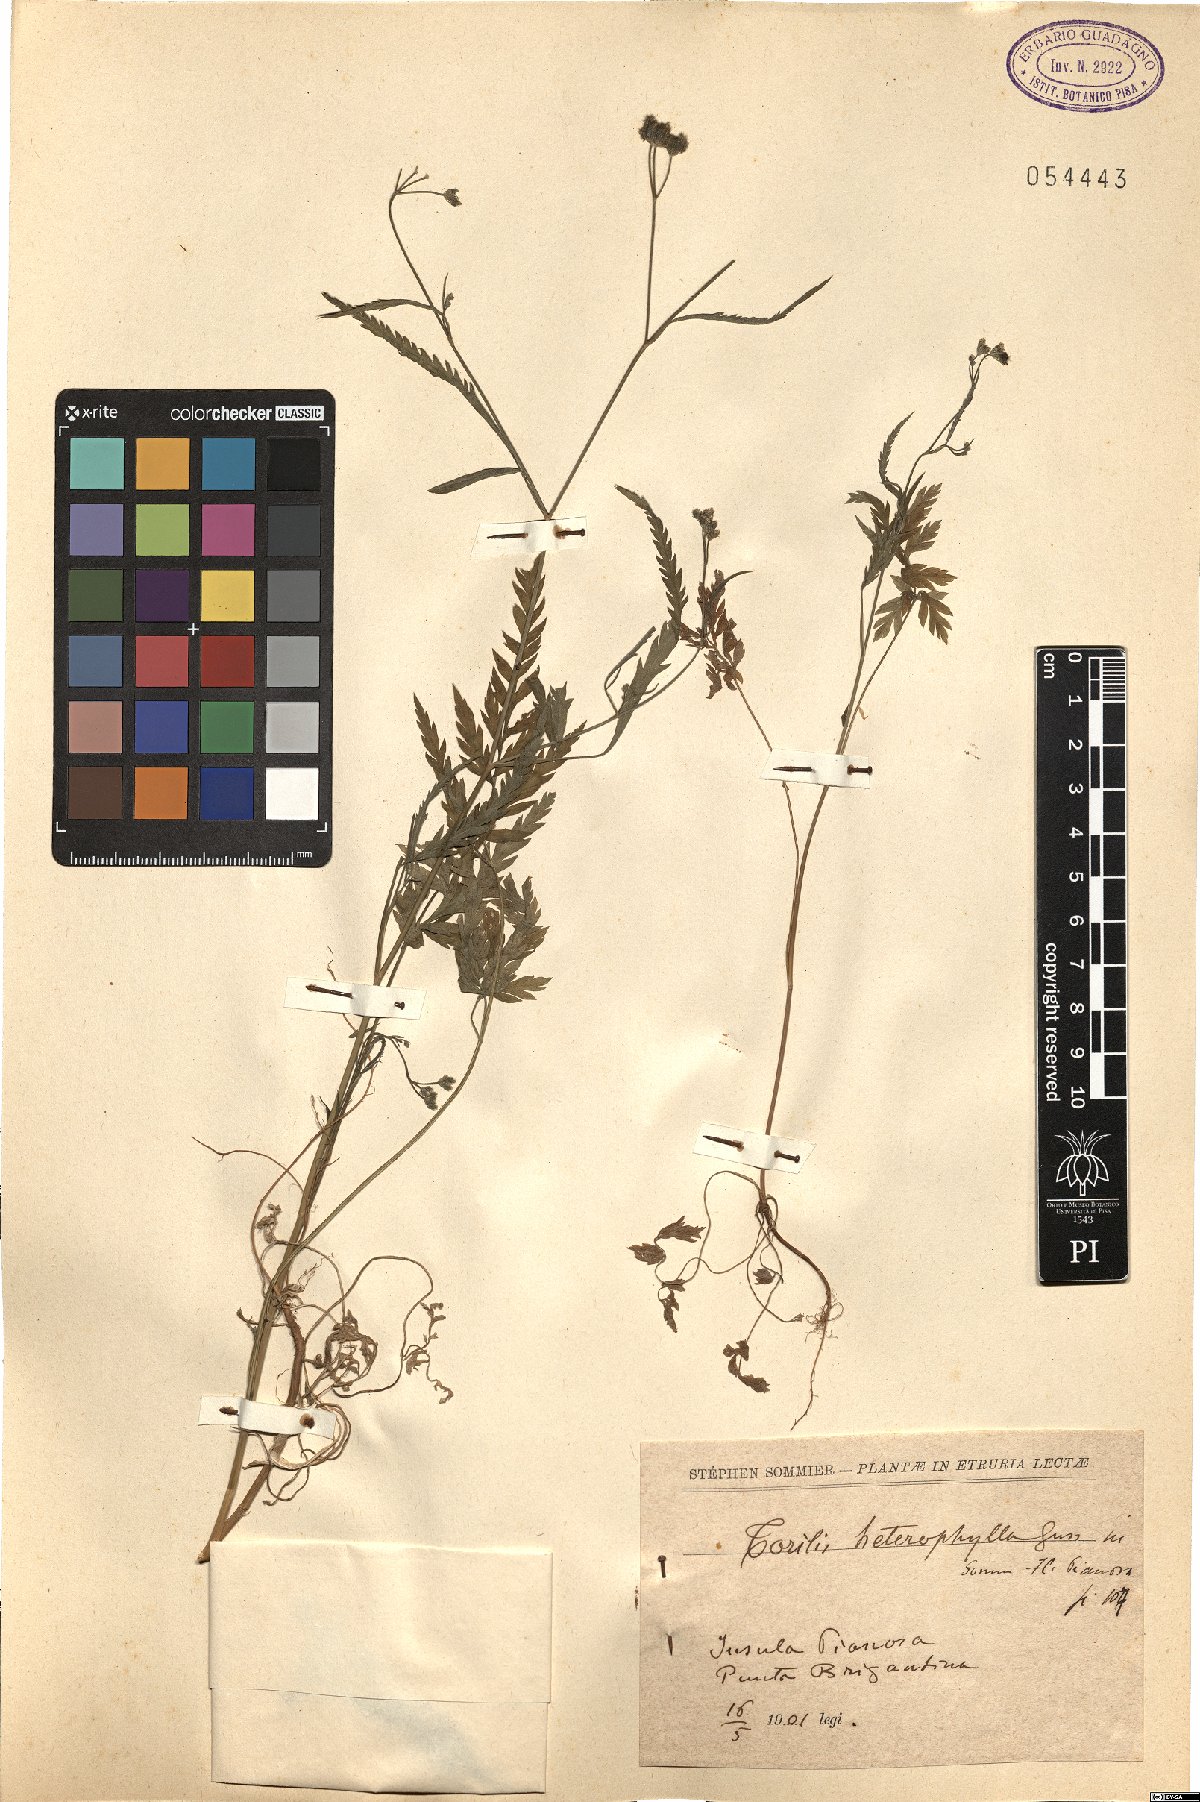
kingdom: Plantae
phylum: Tracheophyta
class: Magnoliopsida
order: Apiales
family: Apiaceae
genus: Torilis
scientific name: Torilis africana
